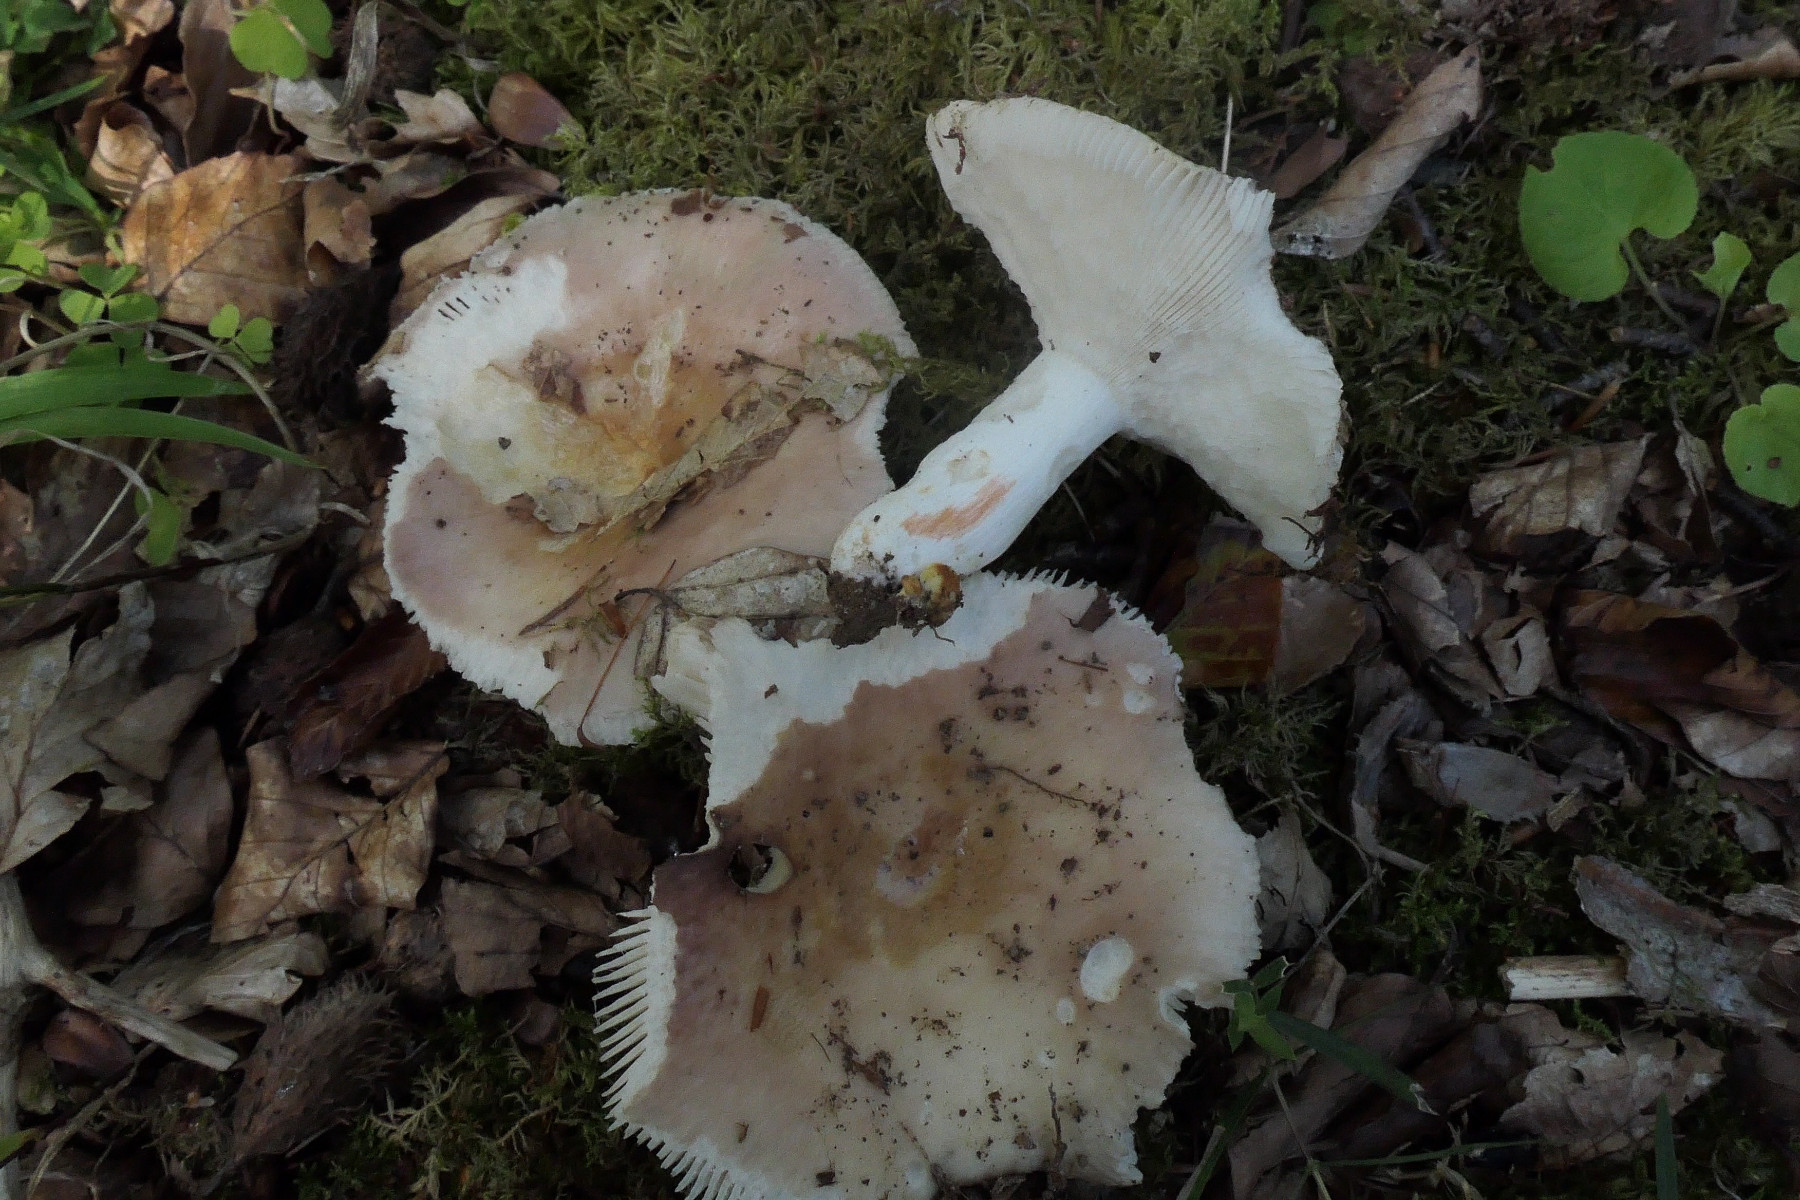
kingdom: Fungi
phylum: Basidiomycota
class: Agaricomycetes
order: Russulales
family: Russulaceae
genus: Russula
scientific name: Russula vesca
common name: spiselig skørhat
